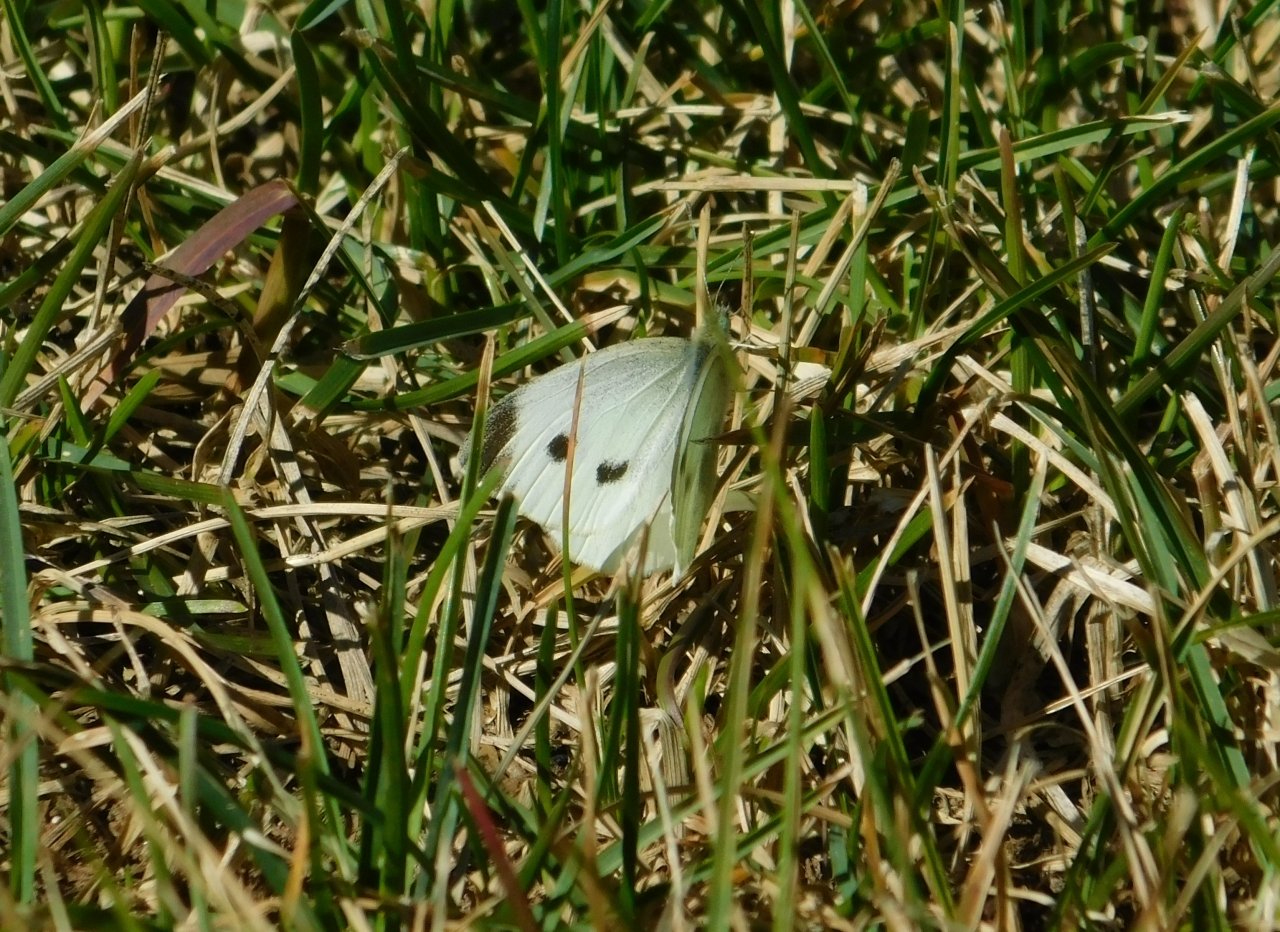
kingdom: Animalia
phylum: Arthropoda
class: Insecta
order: Lepidoptera
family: Pieridae
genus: Pieris
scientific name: Pieris rapae
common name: Cabbage White
